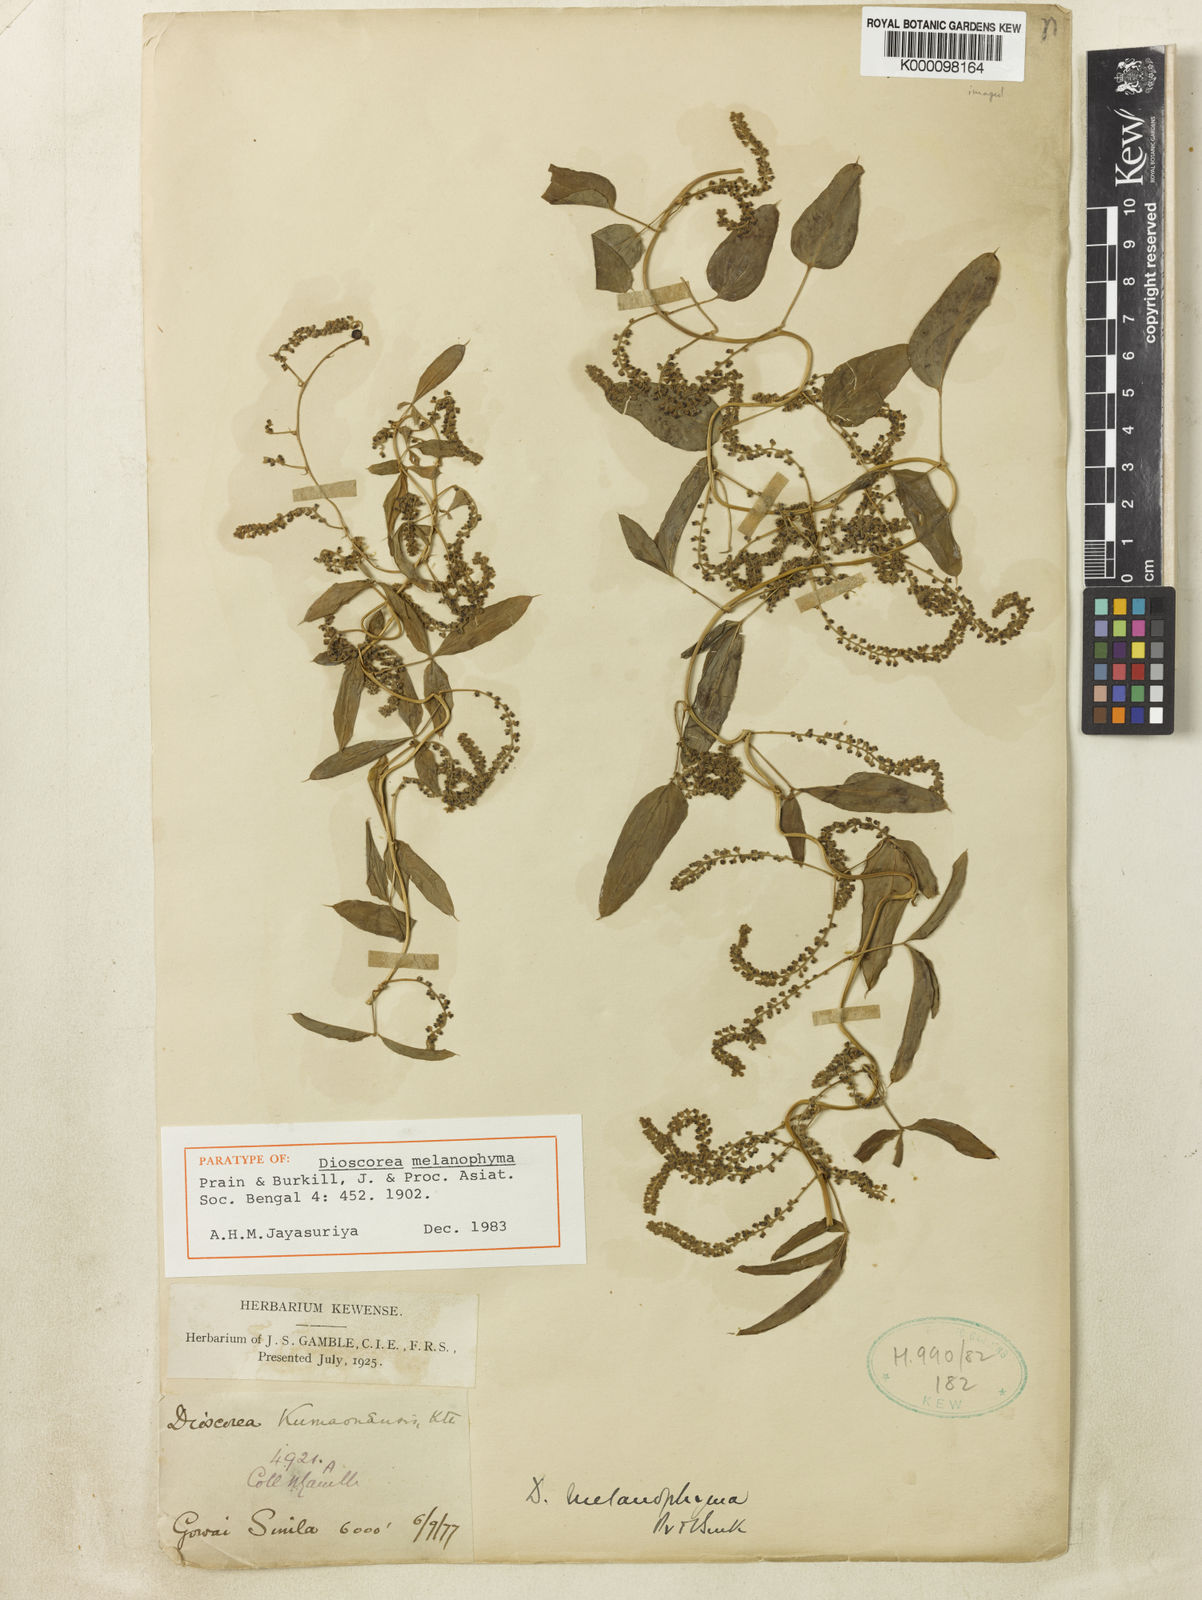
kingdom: Plantae
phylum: Tracheophyta
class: Liliopsida
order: Dioscoreales
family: Dioscoreaceae
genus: Dioscorea
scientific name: Dioscorea melanophyma
